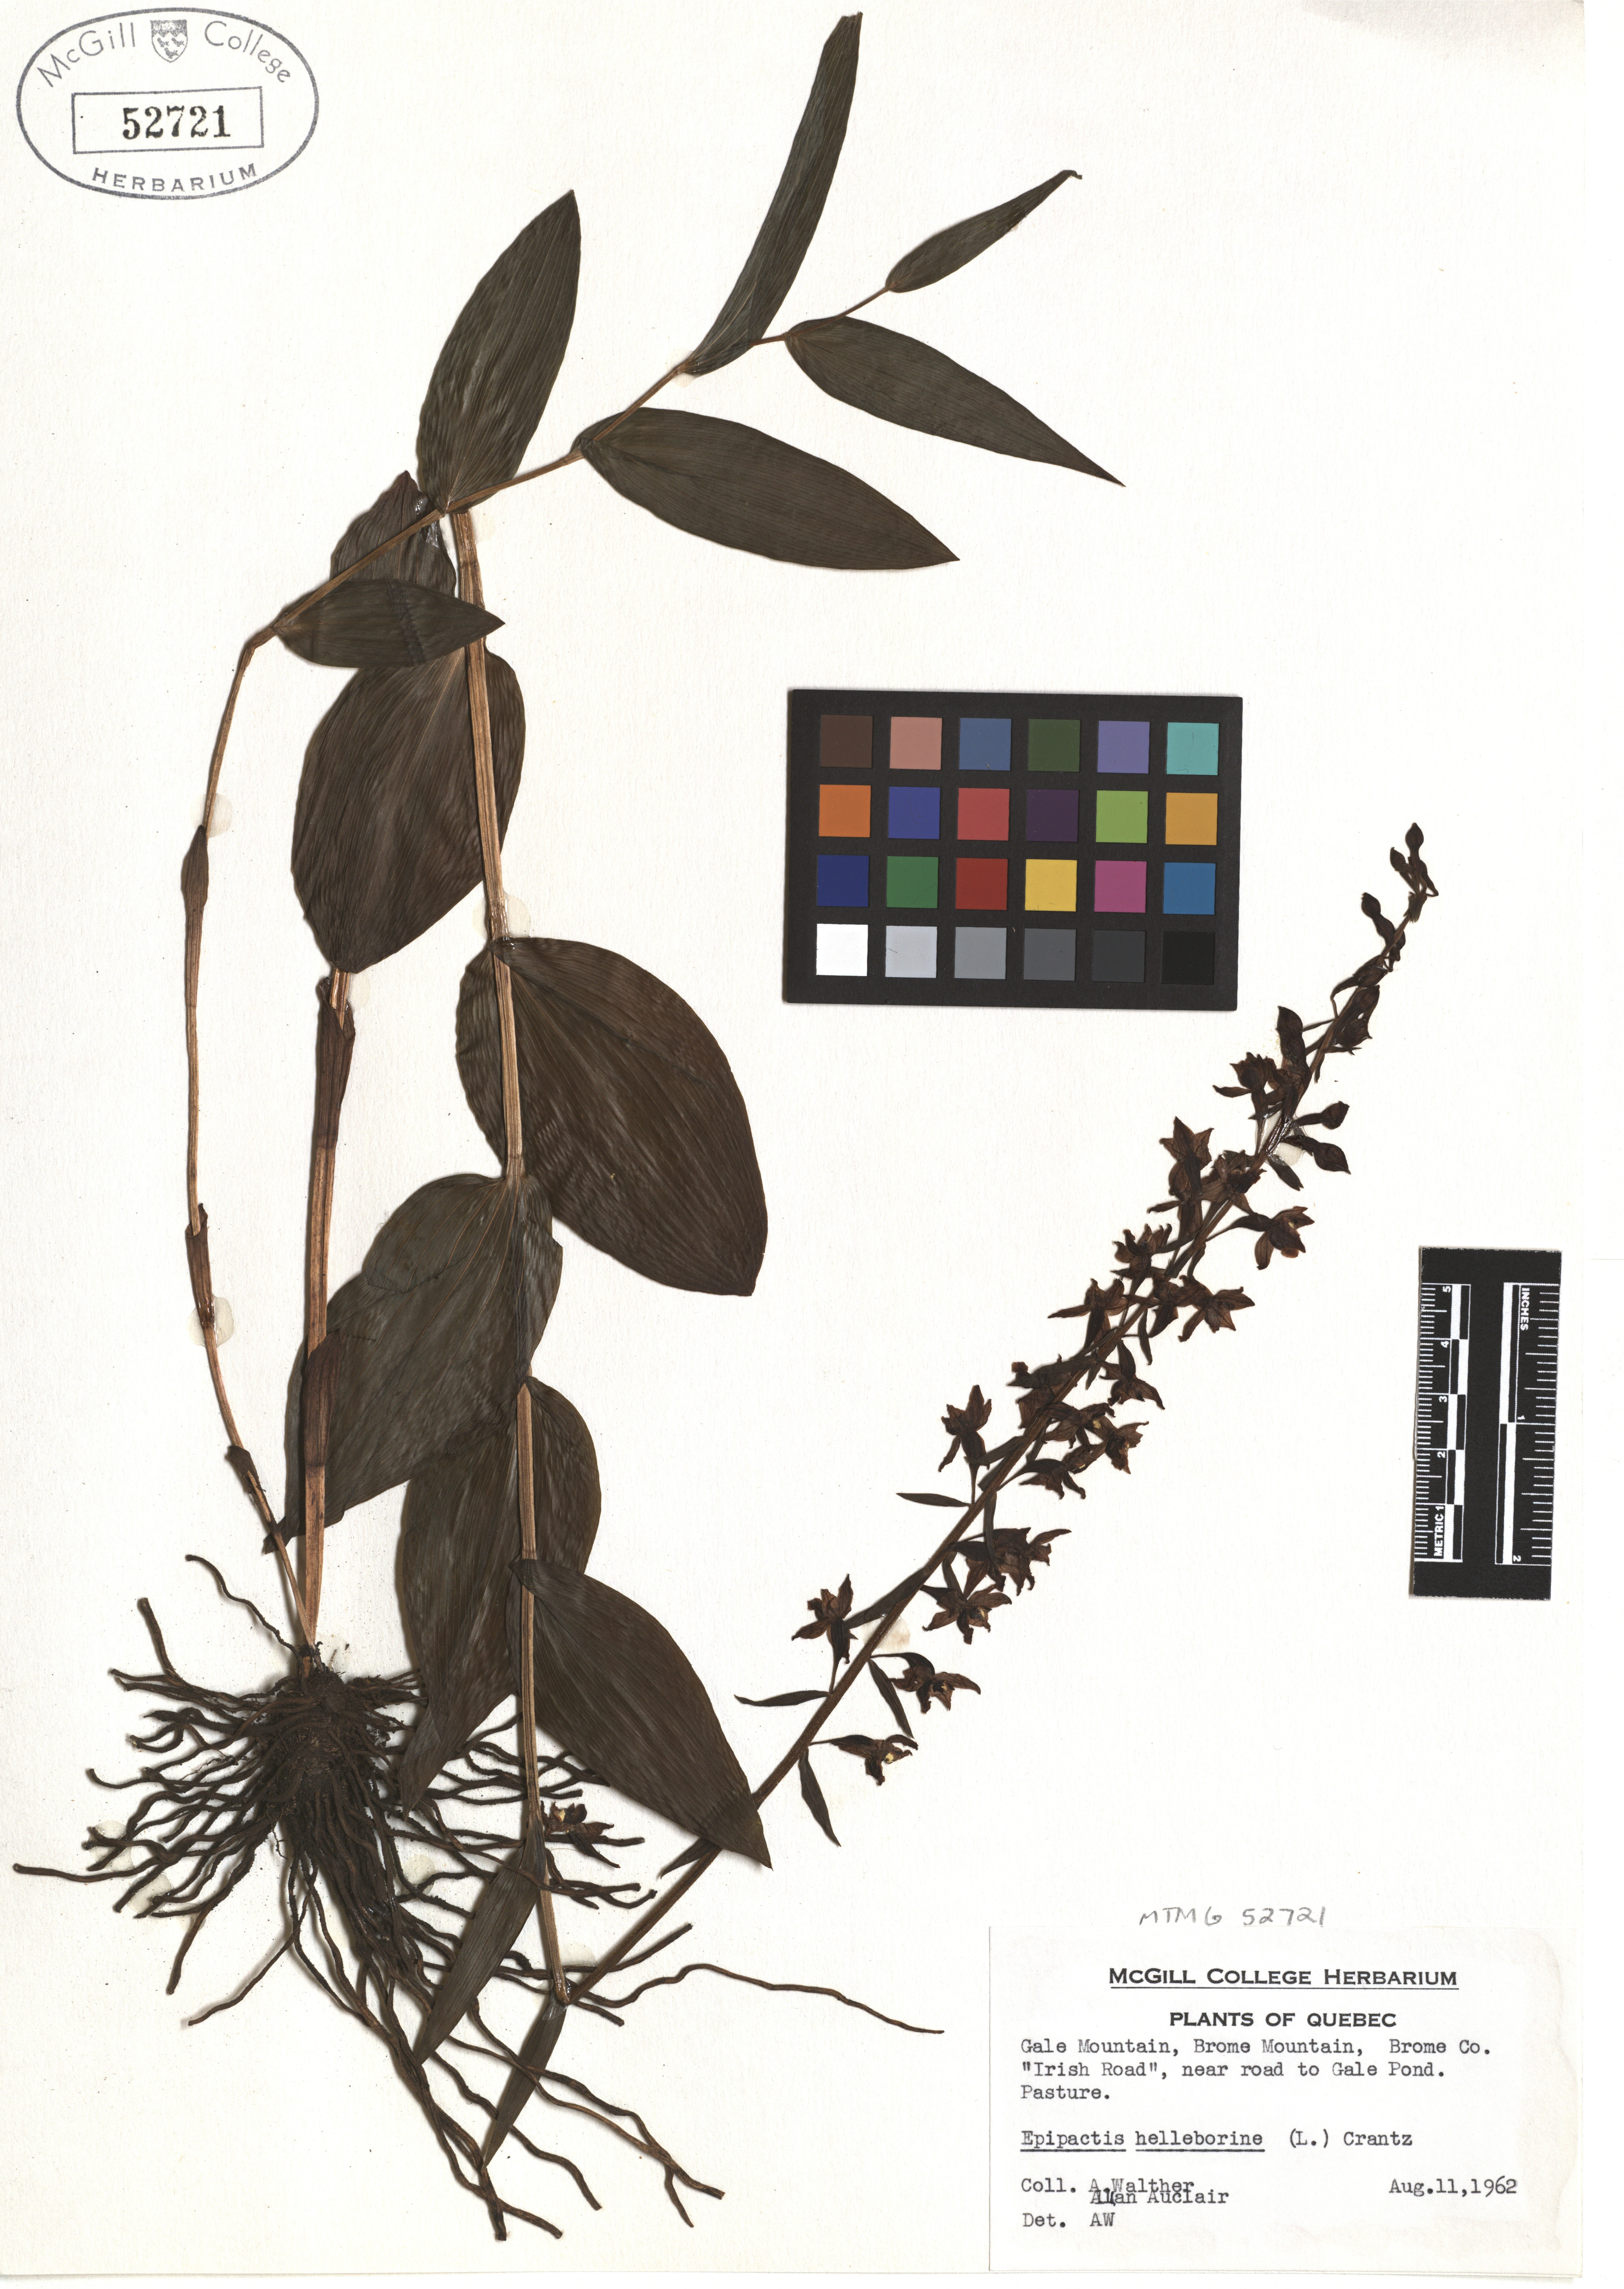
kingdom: Plantae
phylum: Tracheophyta
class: Liliopsida
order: Asparagales
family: Orchidaceae
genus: Epipactis
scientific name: Epipactis helleborine
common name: Broad-leaved helleborine
